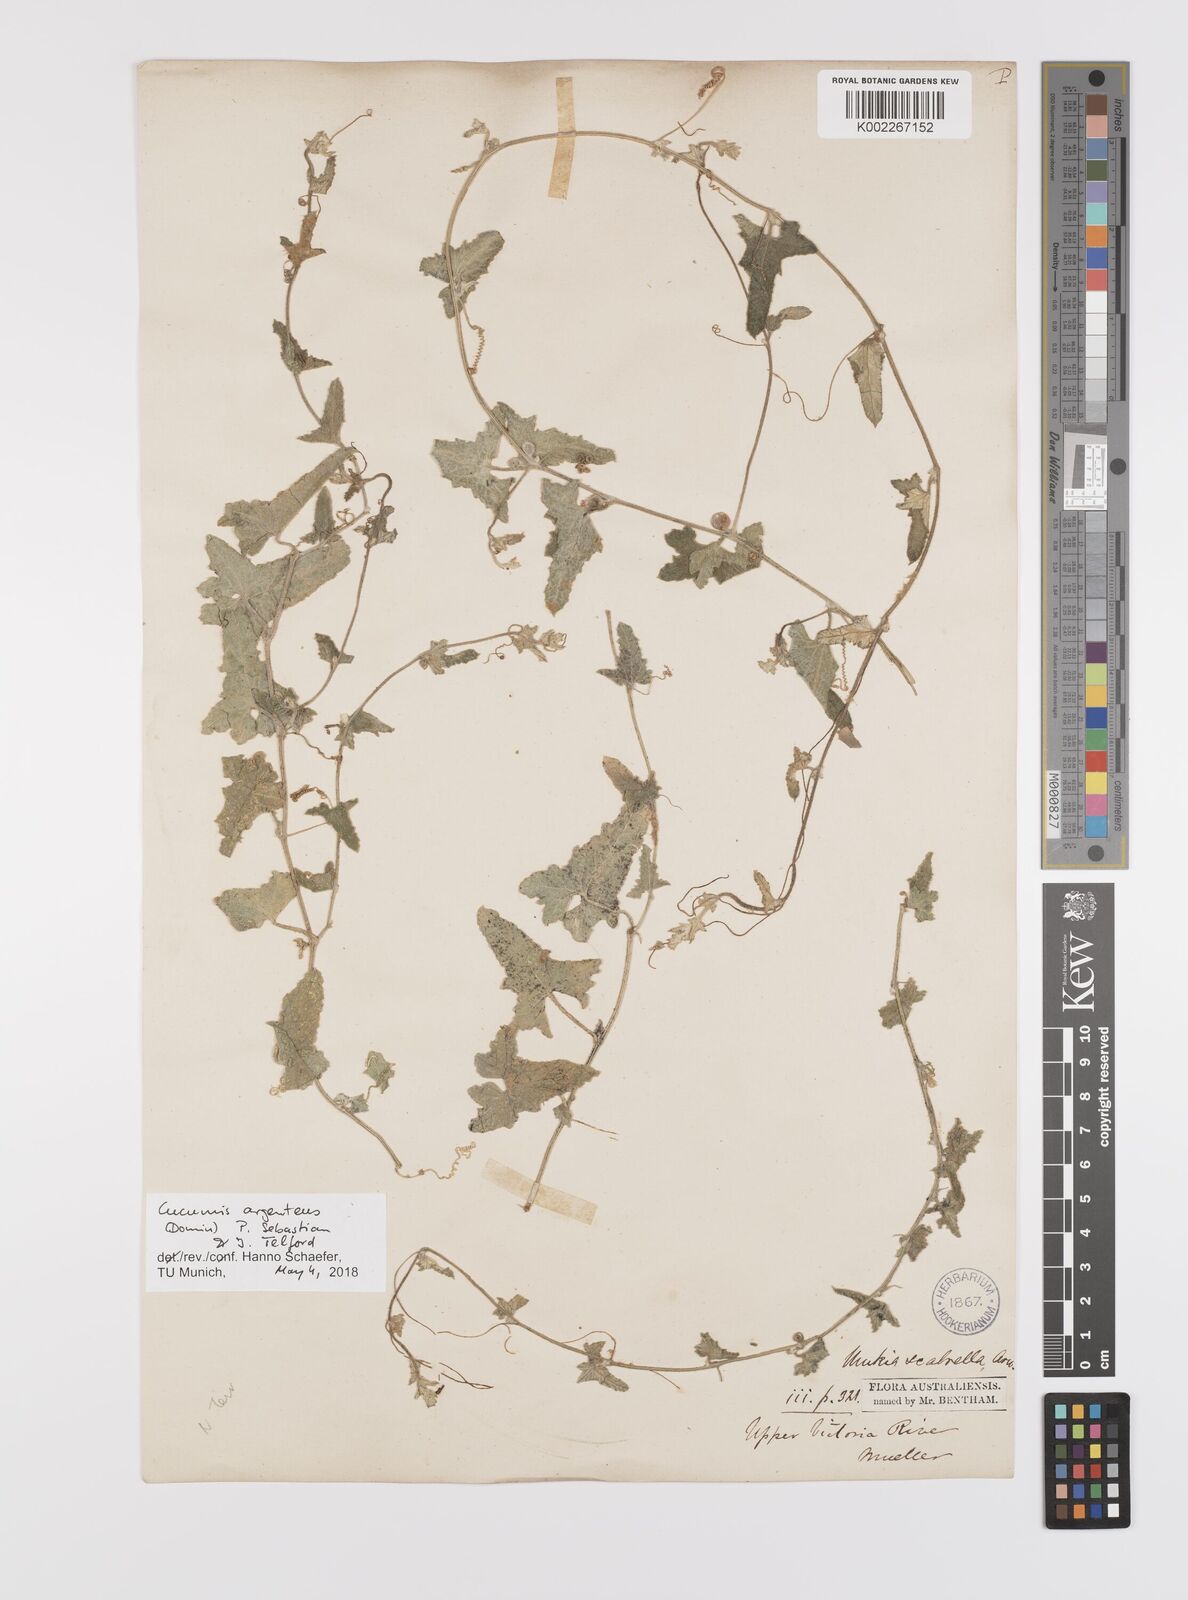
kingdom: Plantae
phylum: Tracheophyta
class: Magnoliopsida
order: Cucurbitales
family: Cucurbitaceae
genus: Cucumis
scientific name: Cucumis argenteus
